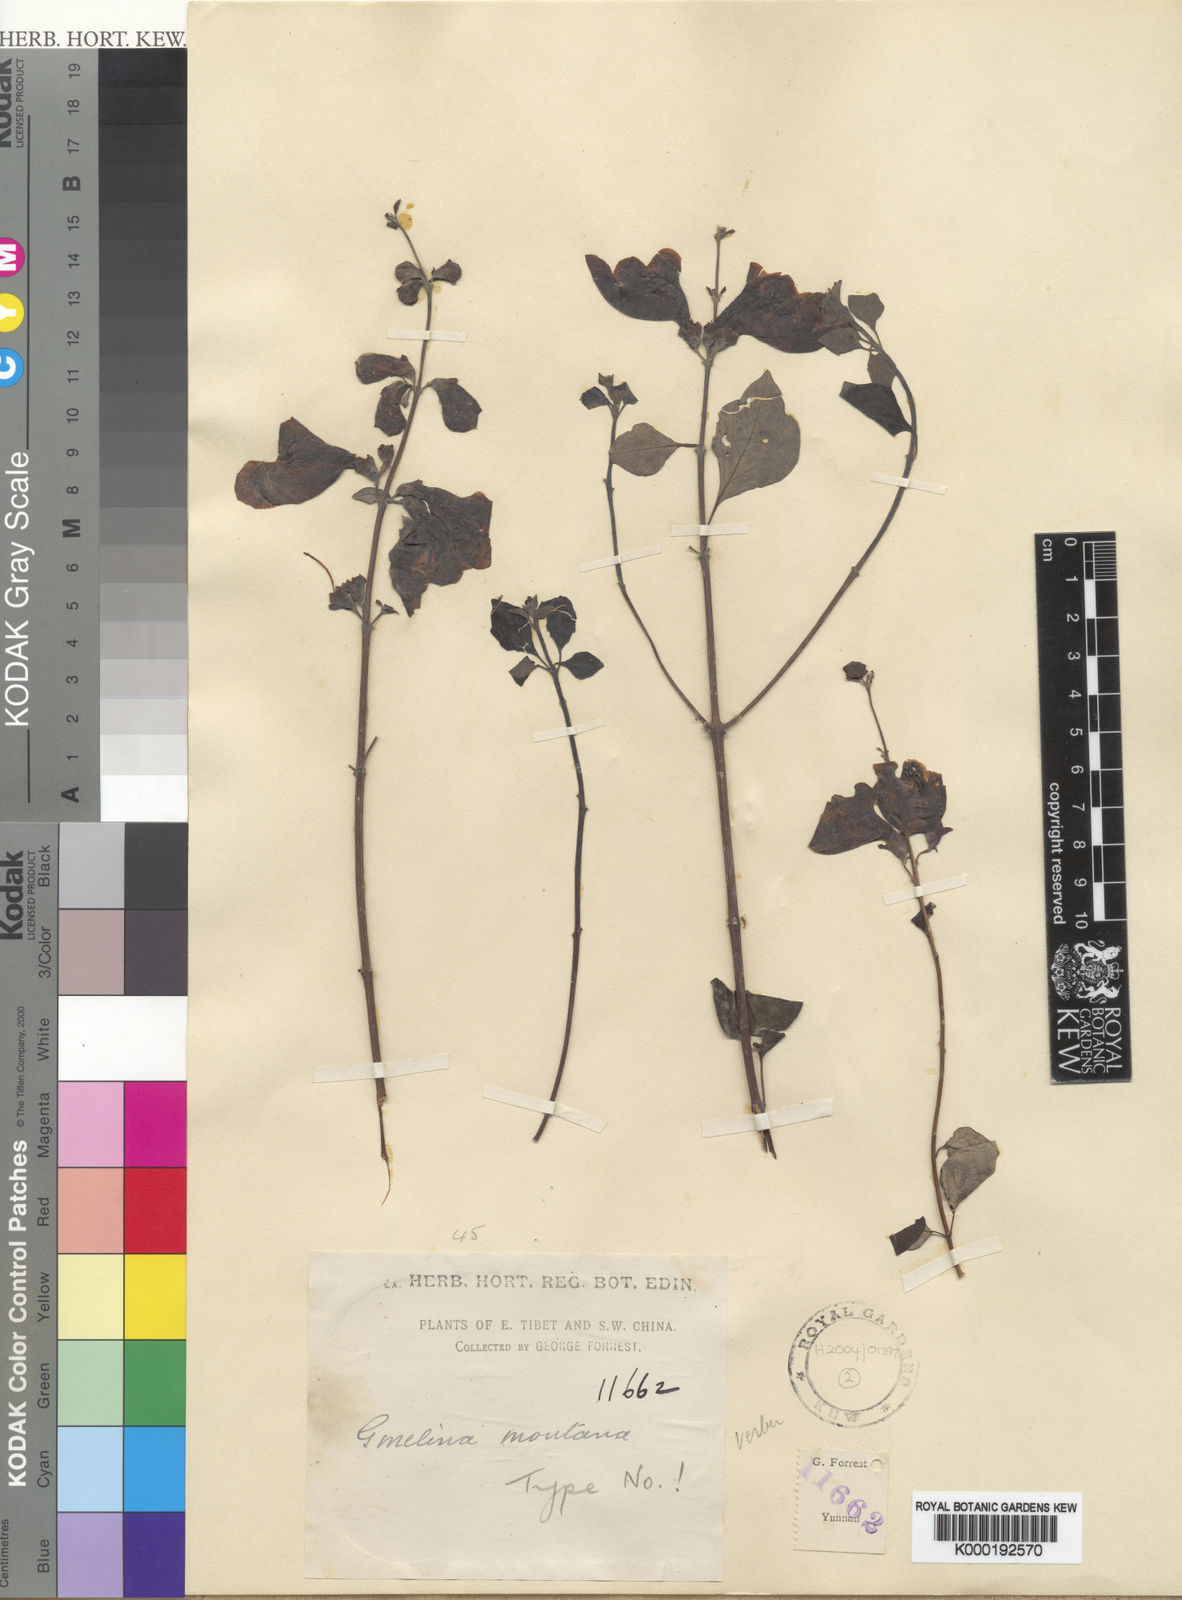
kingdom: Plantae
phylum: Tracheophyta
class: Magnoliopsida
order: Lamiales
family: Lamiaceae
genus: Gmelina
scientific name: Gmelina delavayana
